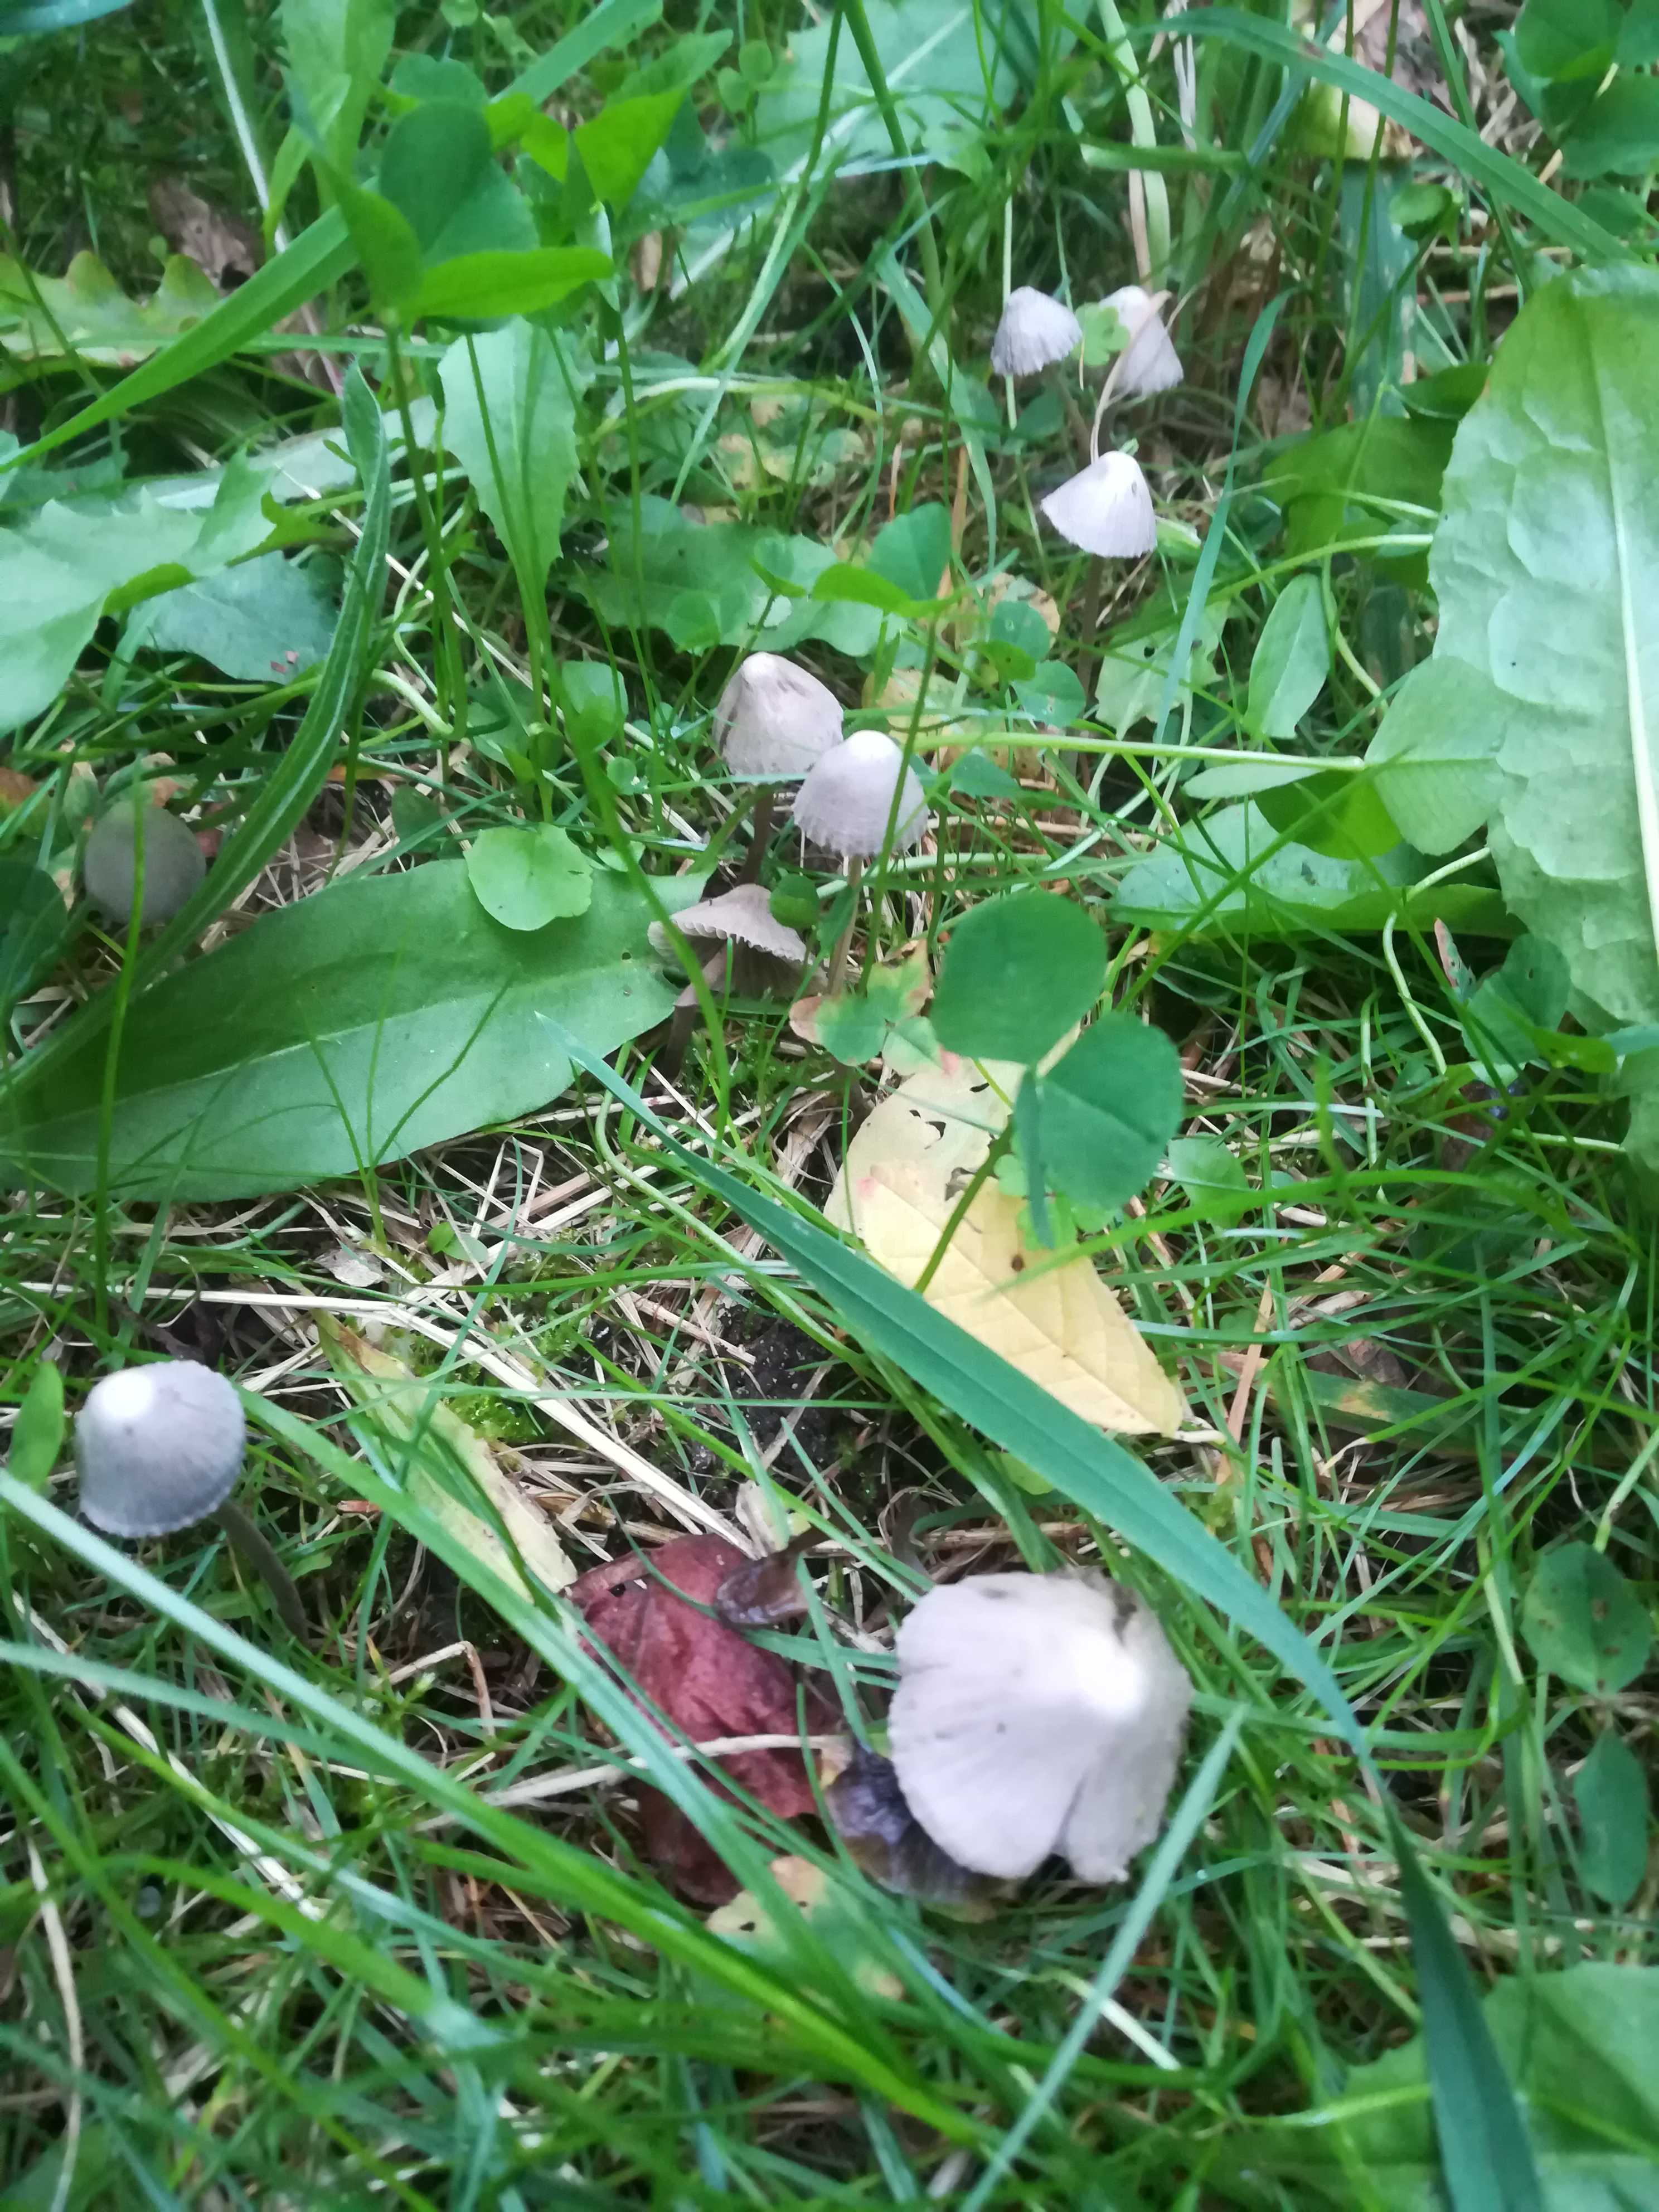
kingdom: Fungi
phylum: Basidiomycota
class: Agaricomycetes
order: Agaricales
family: Mycenaceae
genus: Mycena
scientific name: Mycena leptocephala
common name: klor-huesvamp
